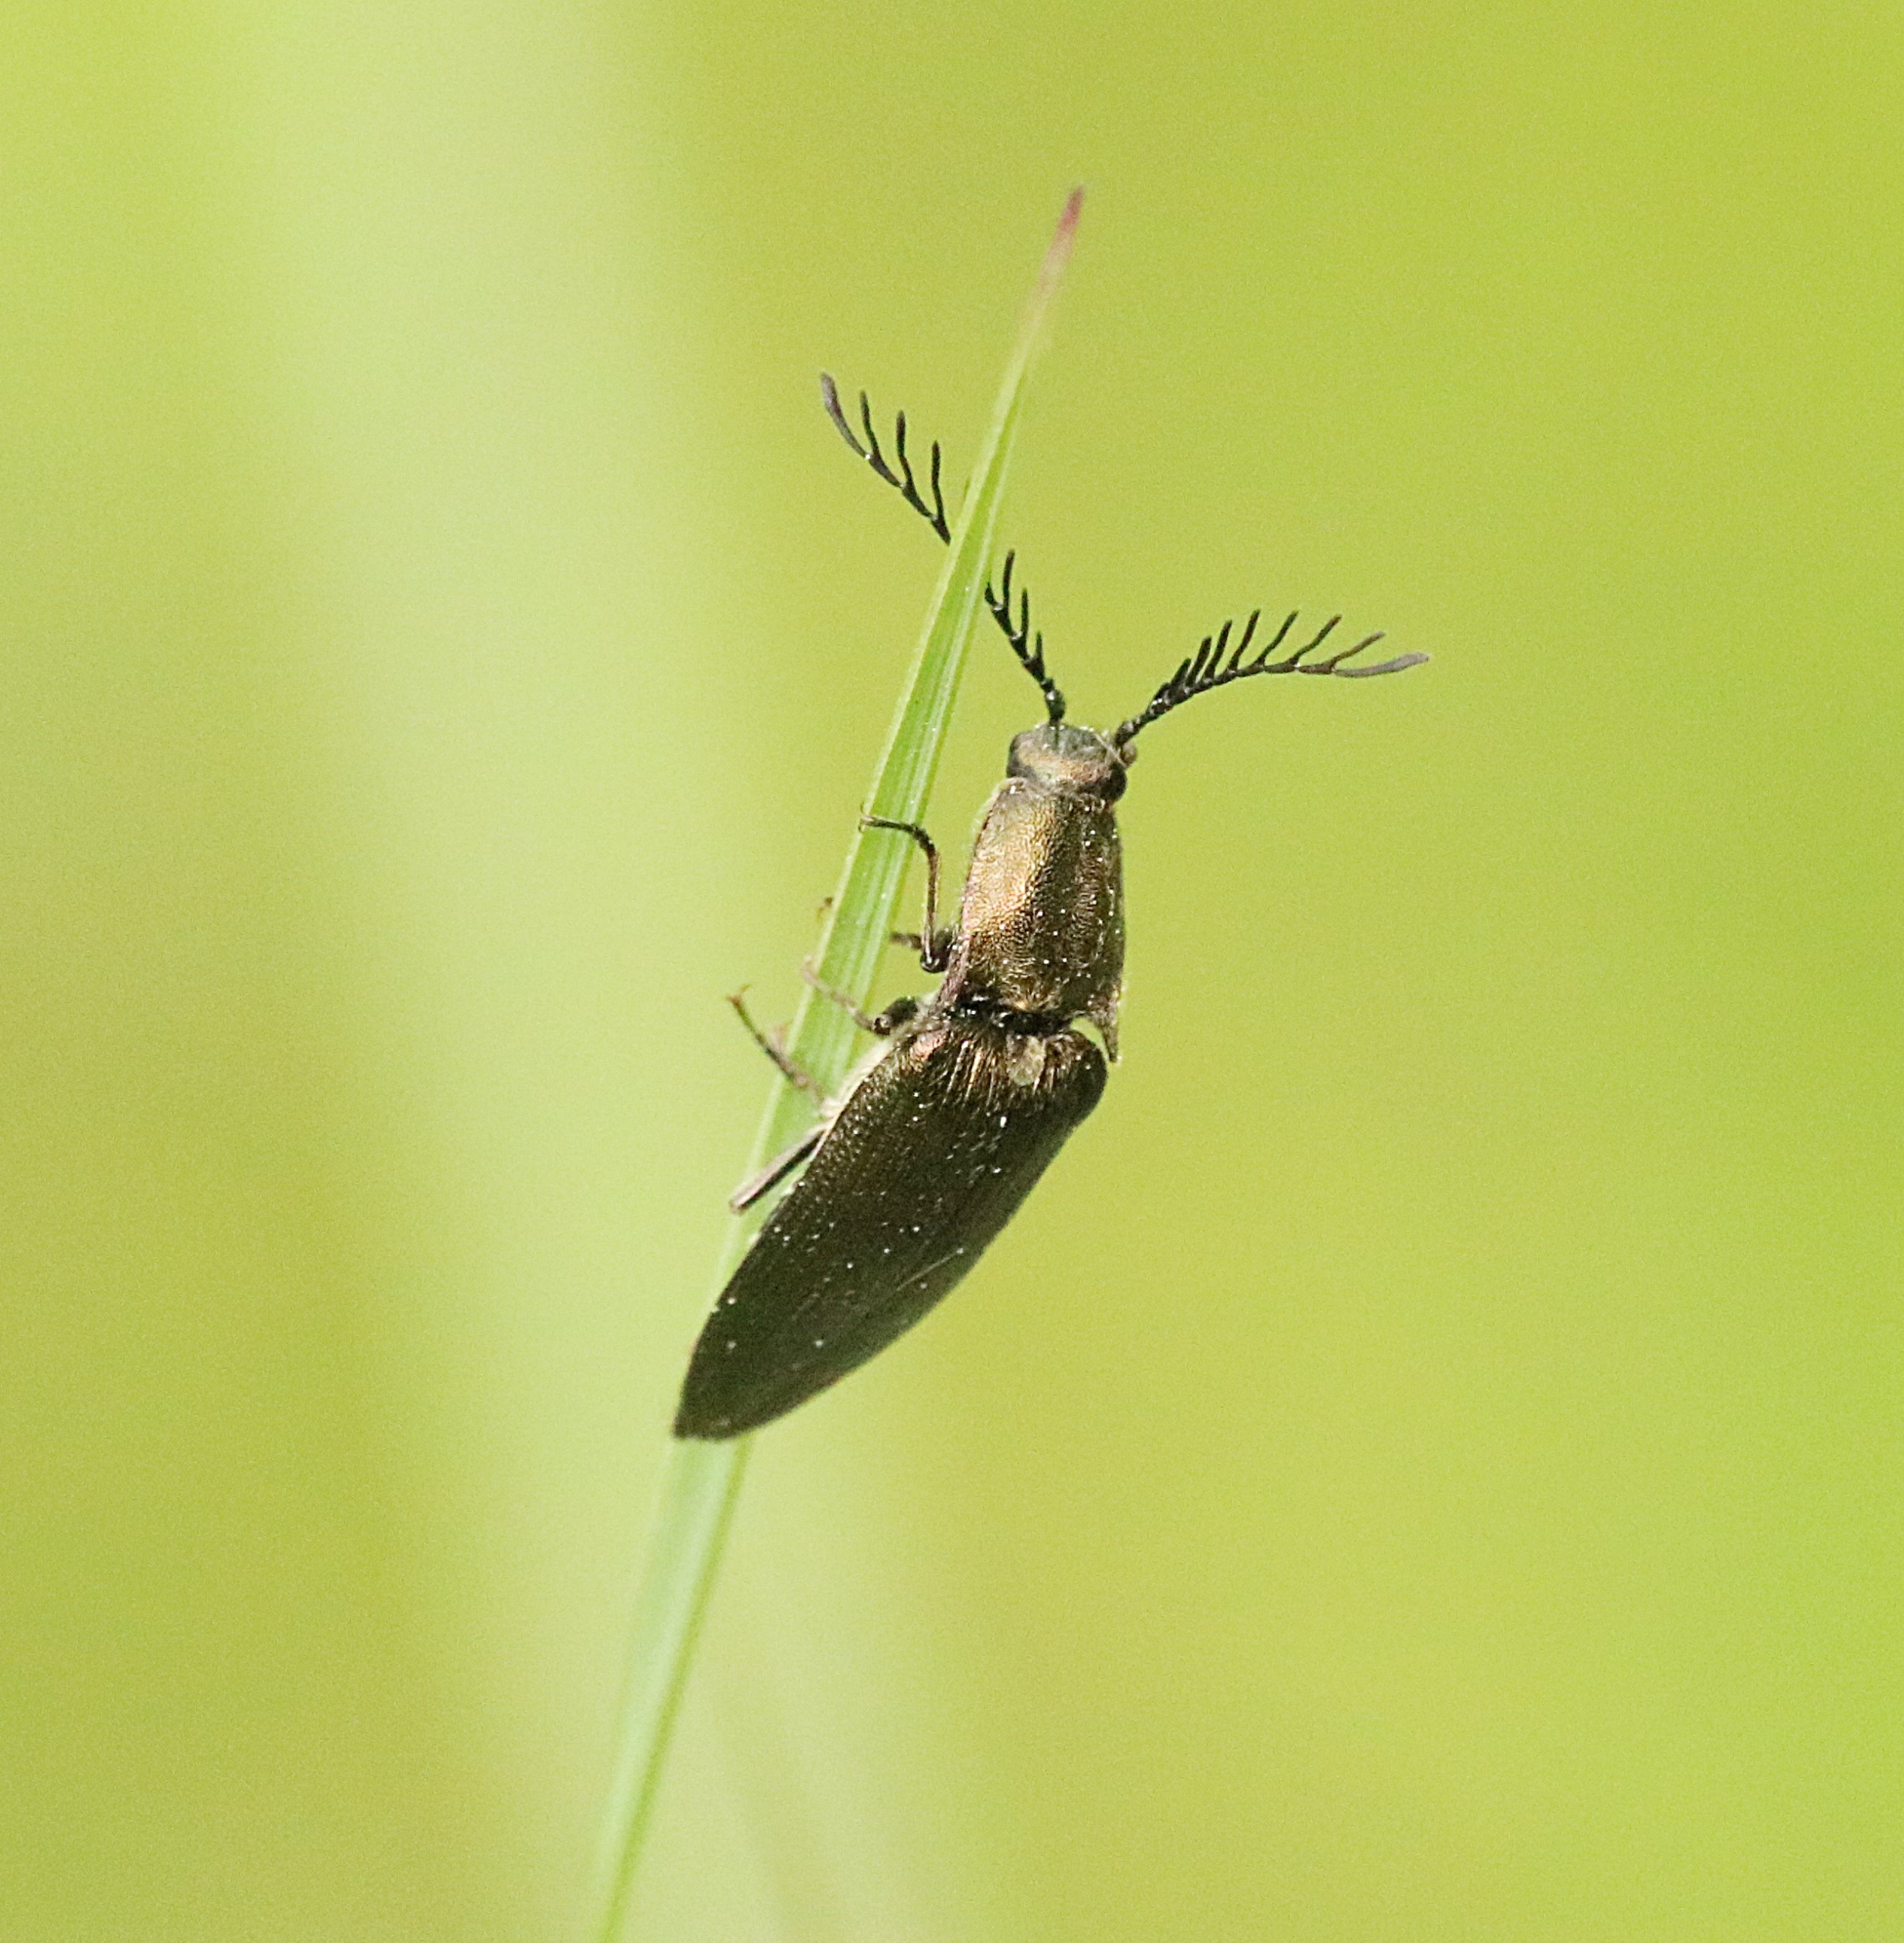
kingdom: Animalia
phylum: Arthropoda
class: Insecta
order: Coleoptera
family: Elateridae
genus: Ctenicera
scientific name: Ctenicera pectinicornis
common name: Kamhornet smælder
